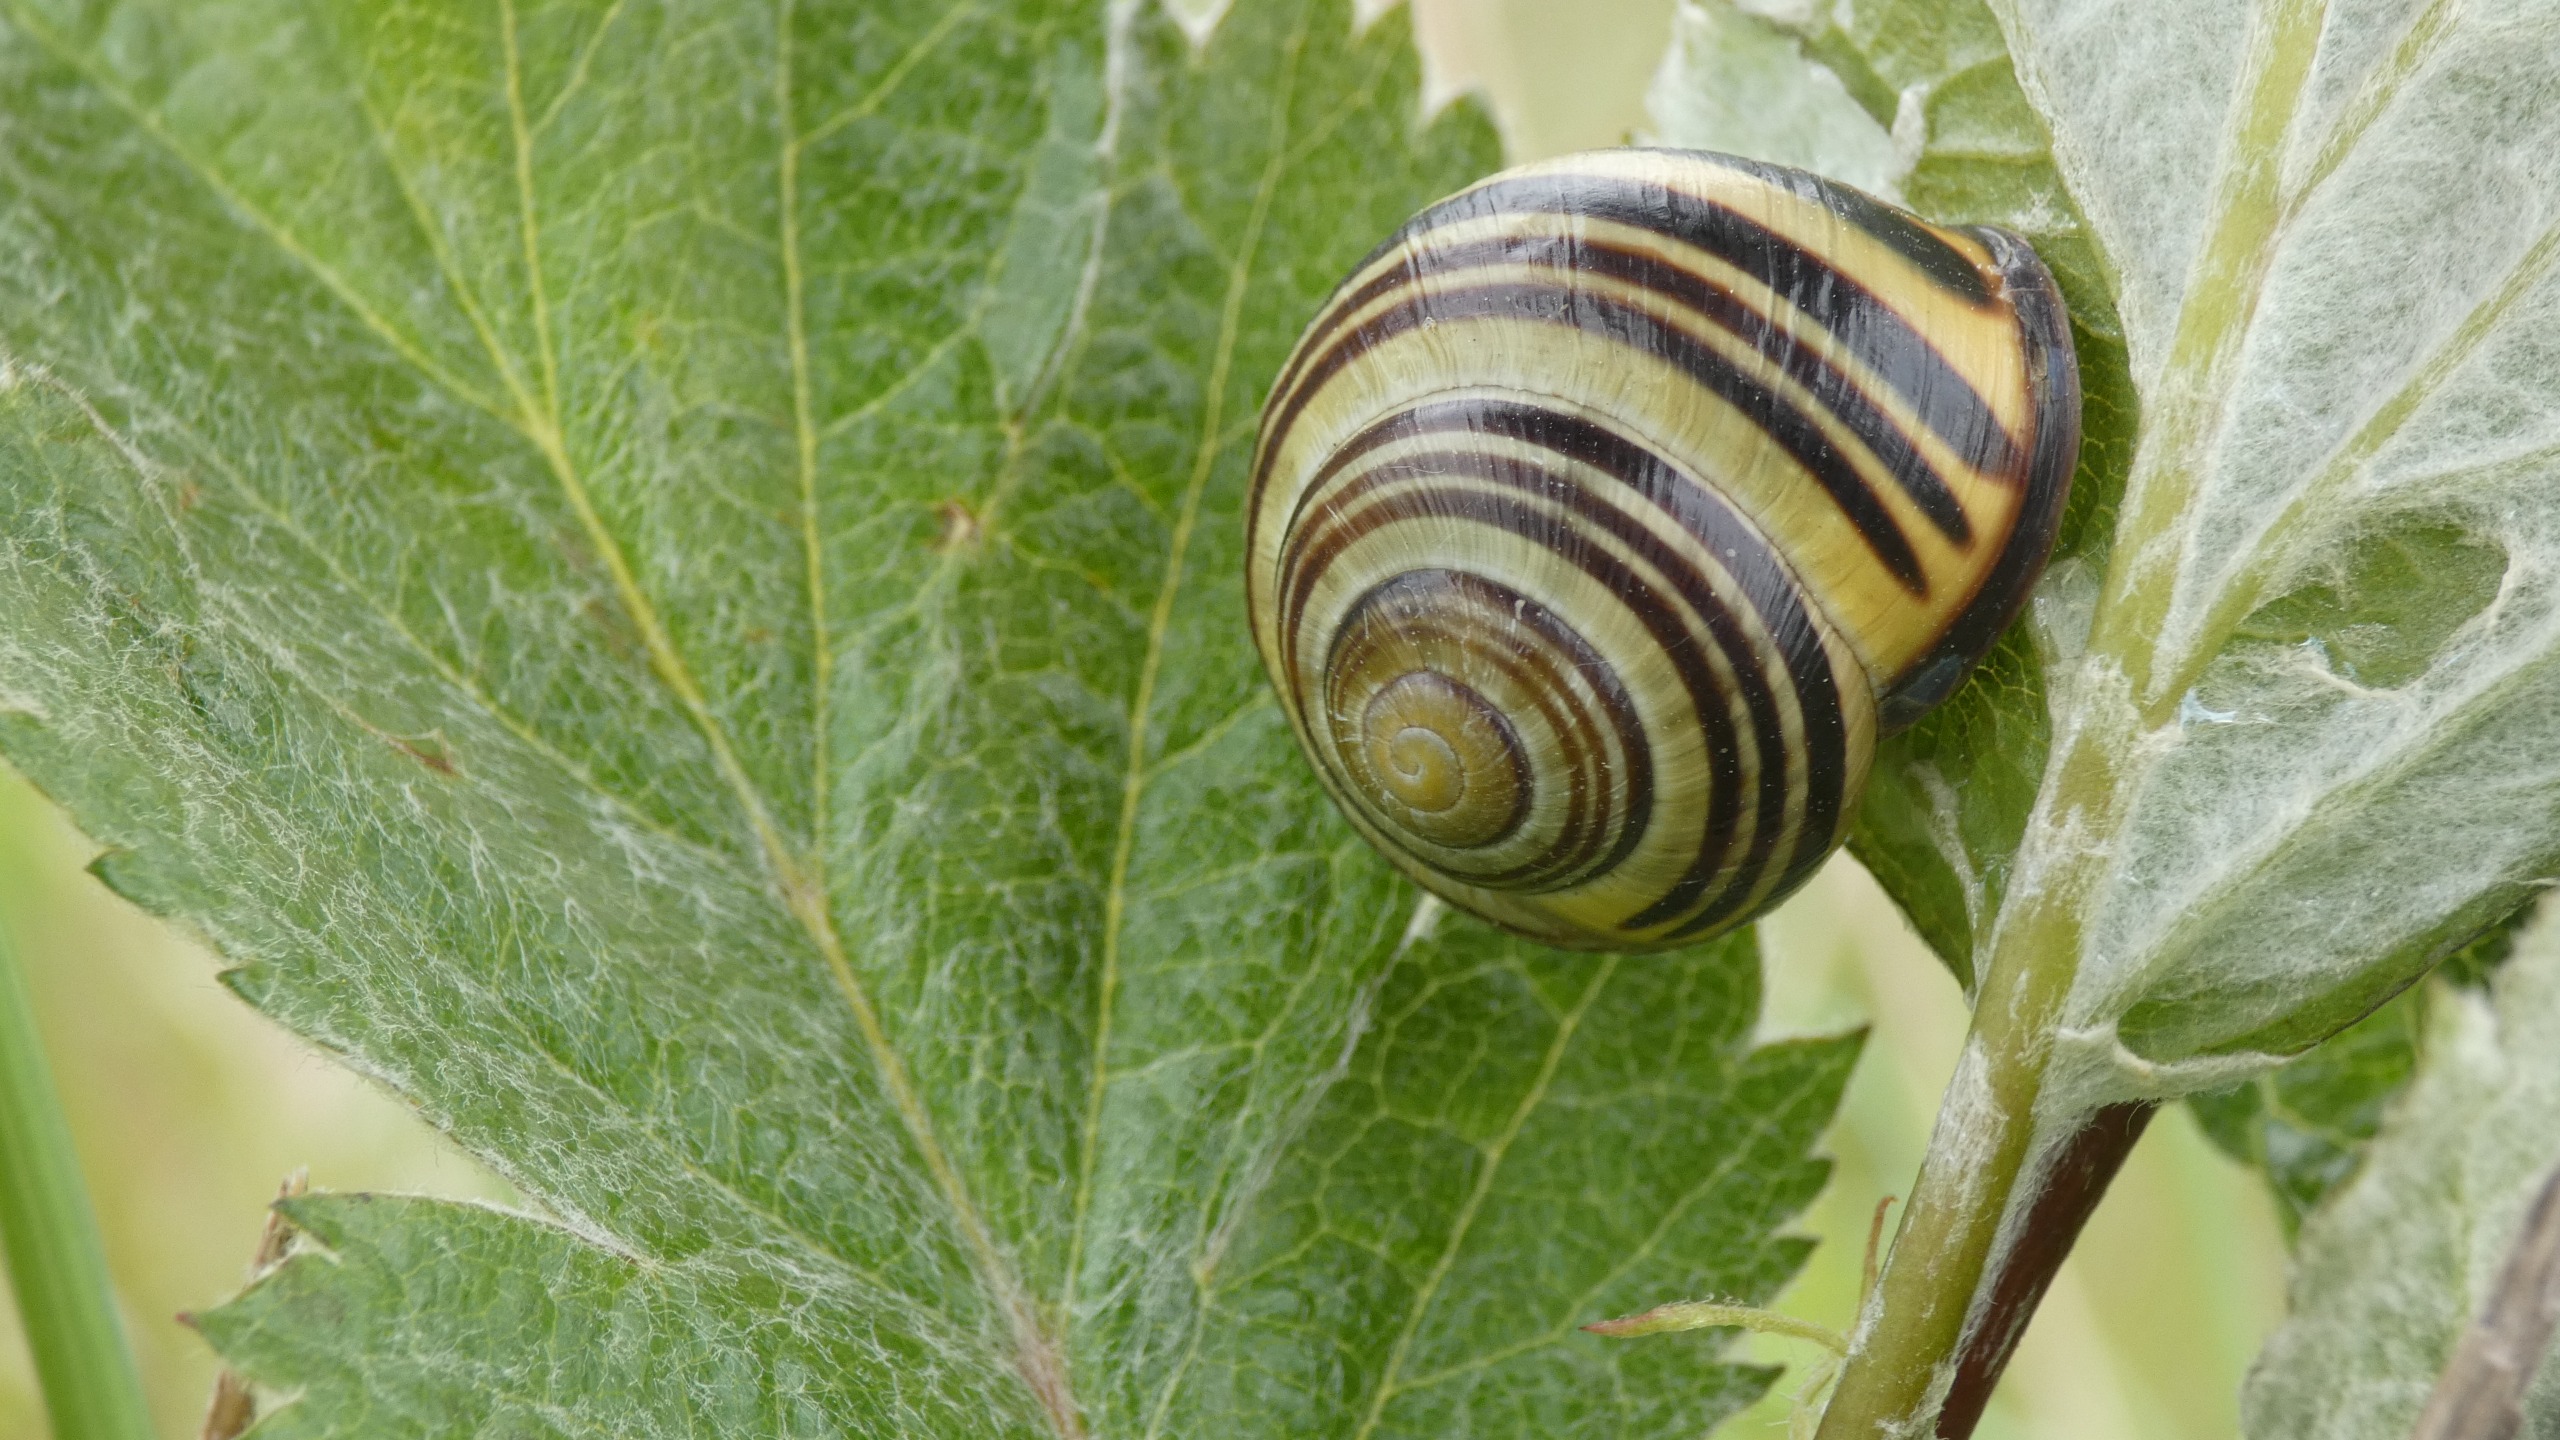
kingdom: Animalia
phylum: Mollusca
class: Gastropoda
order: Stylommatophora
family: Helicidae
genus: Cepaea
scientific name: Cepaea nemoralis
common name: Lundsnegl
